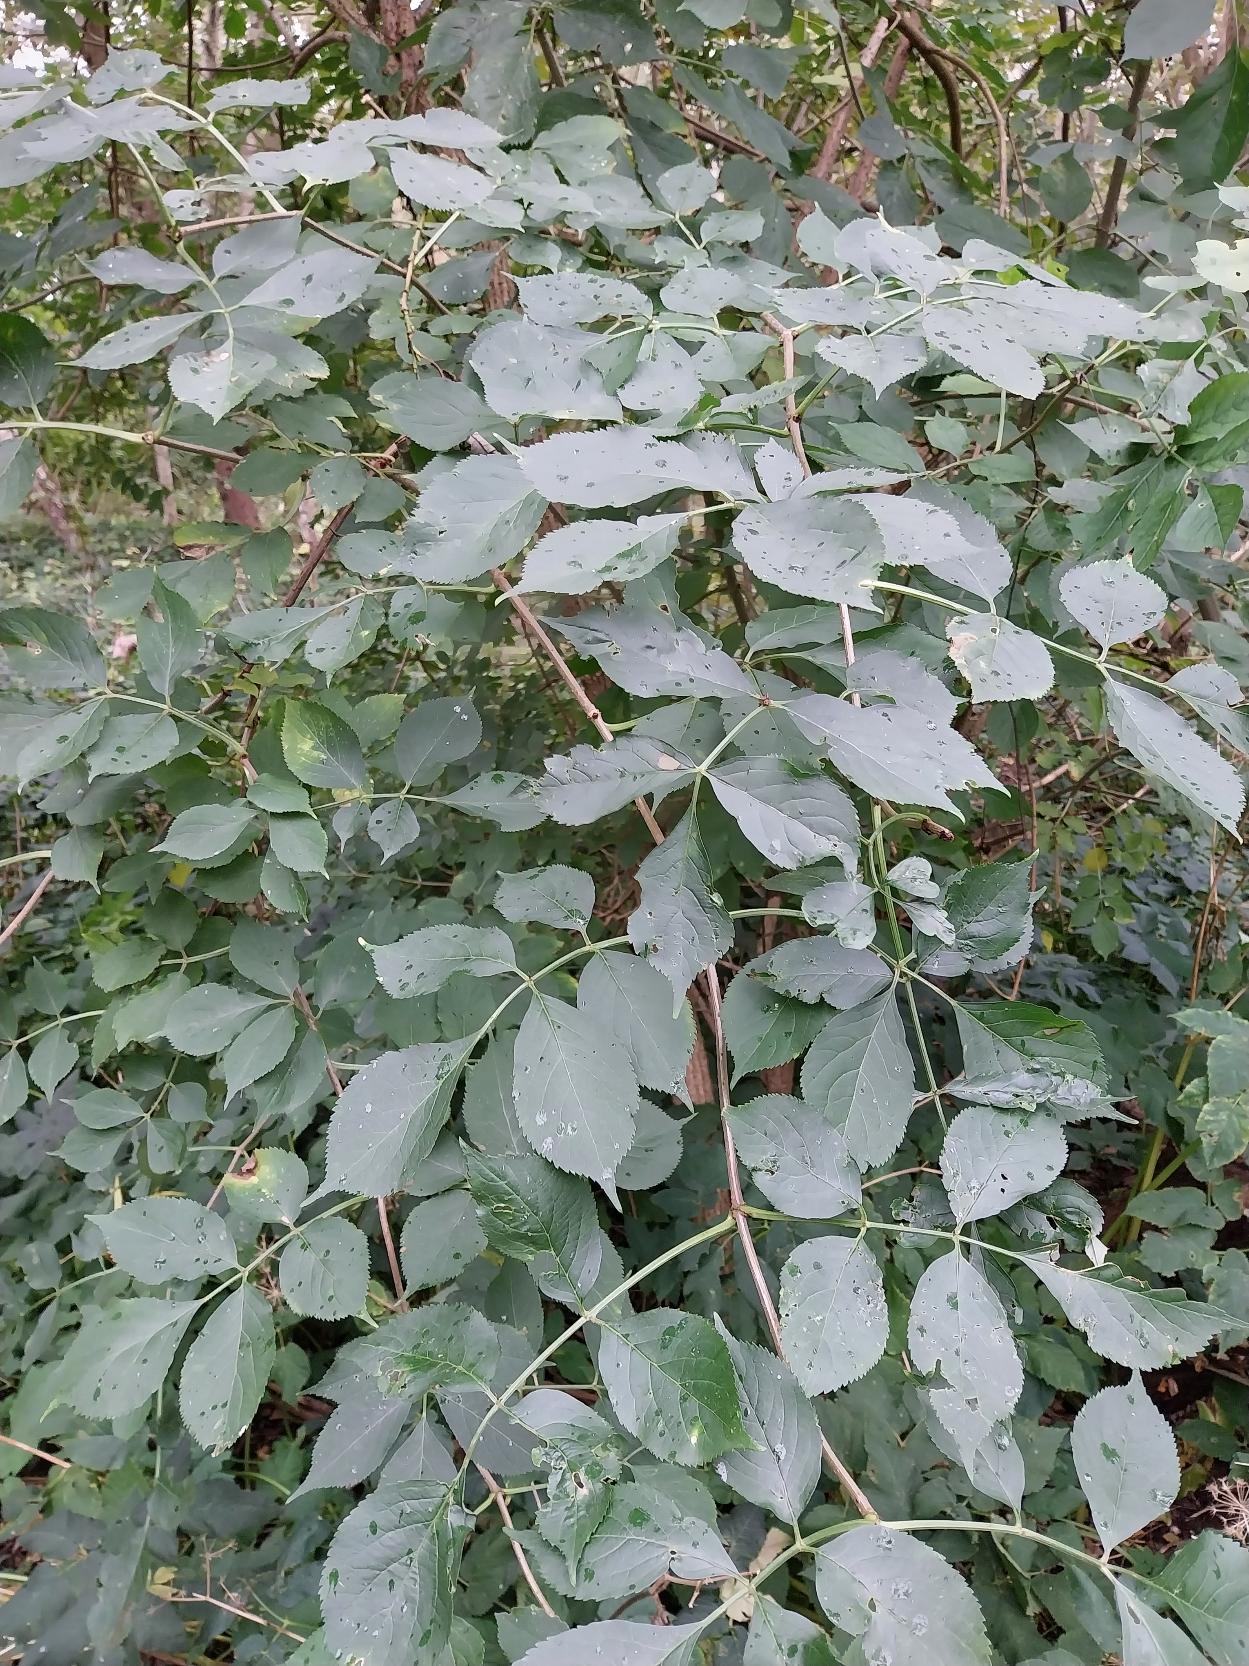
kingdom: Plantae
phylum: Tracheophyta
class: Magnoliopsida
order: Dipsacales
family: Viburnaceae
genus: Sambucus
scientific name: Sambucus nigra
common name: Almindelig hyld
